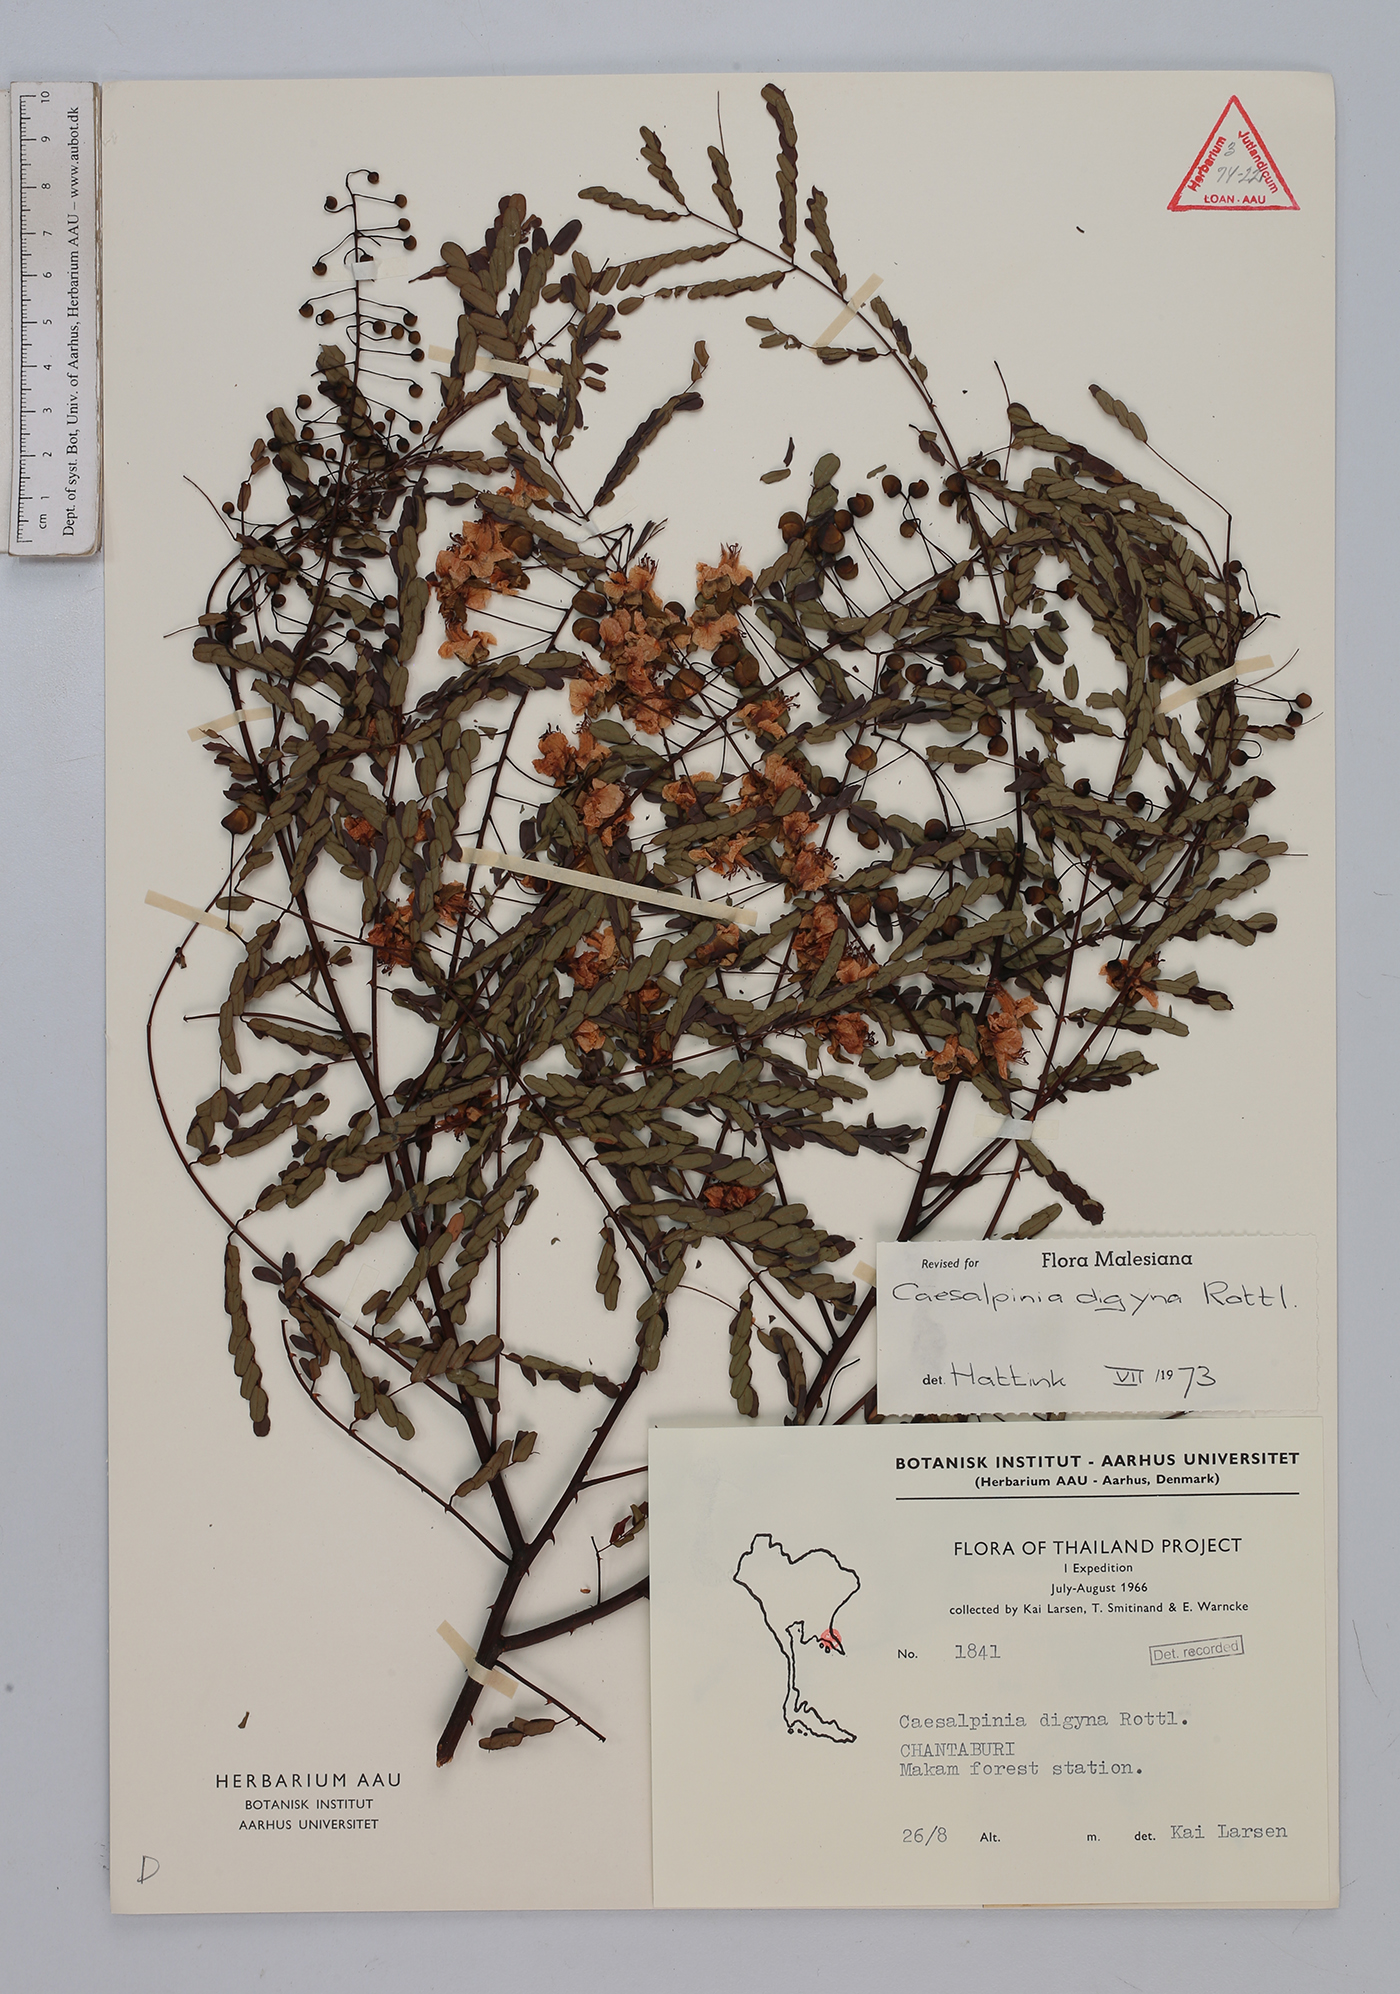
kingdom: Plantae
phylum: Tracheophyta
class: Magnoliopsida
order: Fabales
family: Fabaceae
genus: Moullava
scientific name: Moullava digyna
